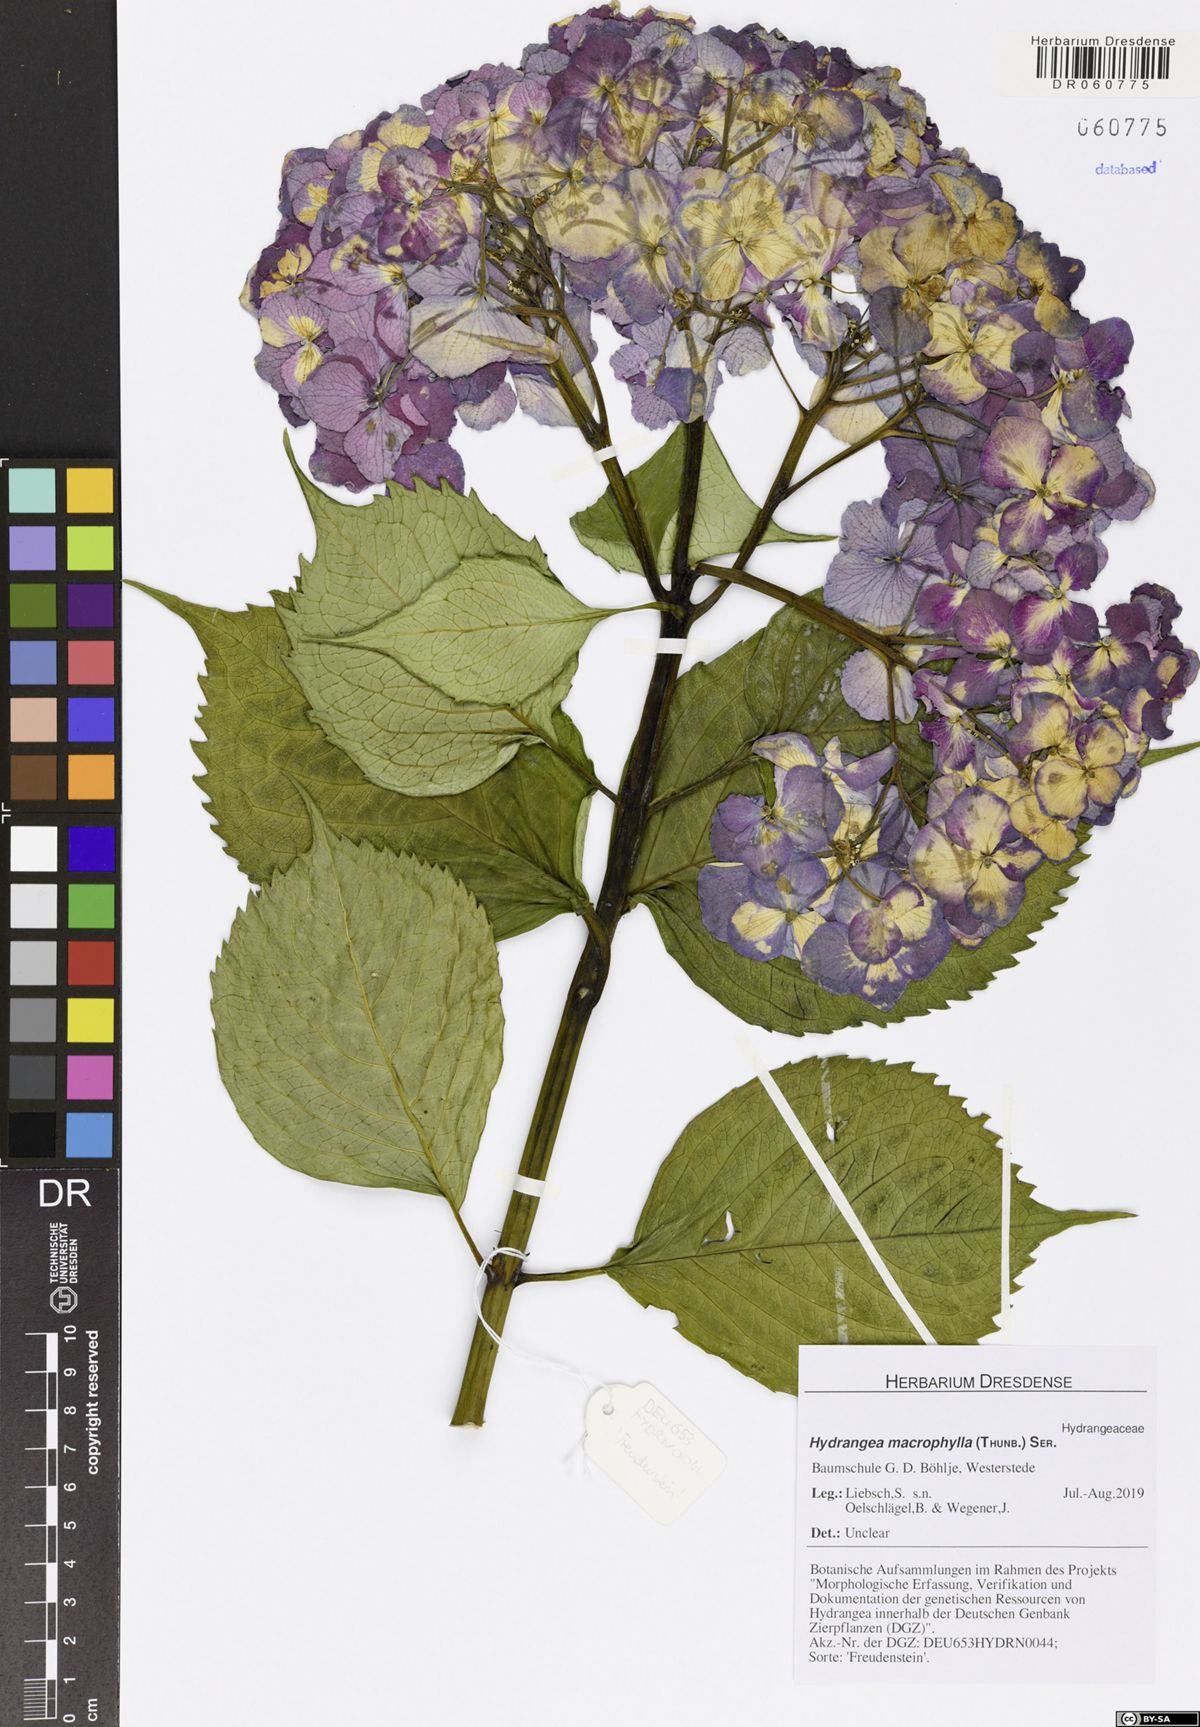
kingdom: Plantae
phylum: Tracheophyta
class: Magnoliopsida
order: Cornales
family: Hydrangeaceae
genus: Hydrangea
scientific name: Hydrangea macrophylla
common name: Hydrangea
